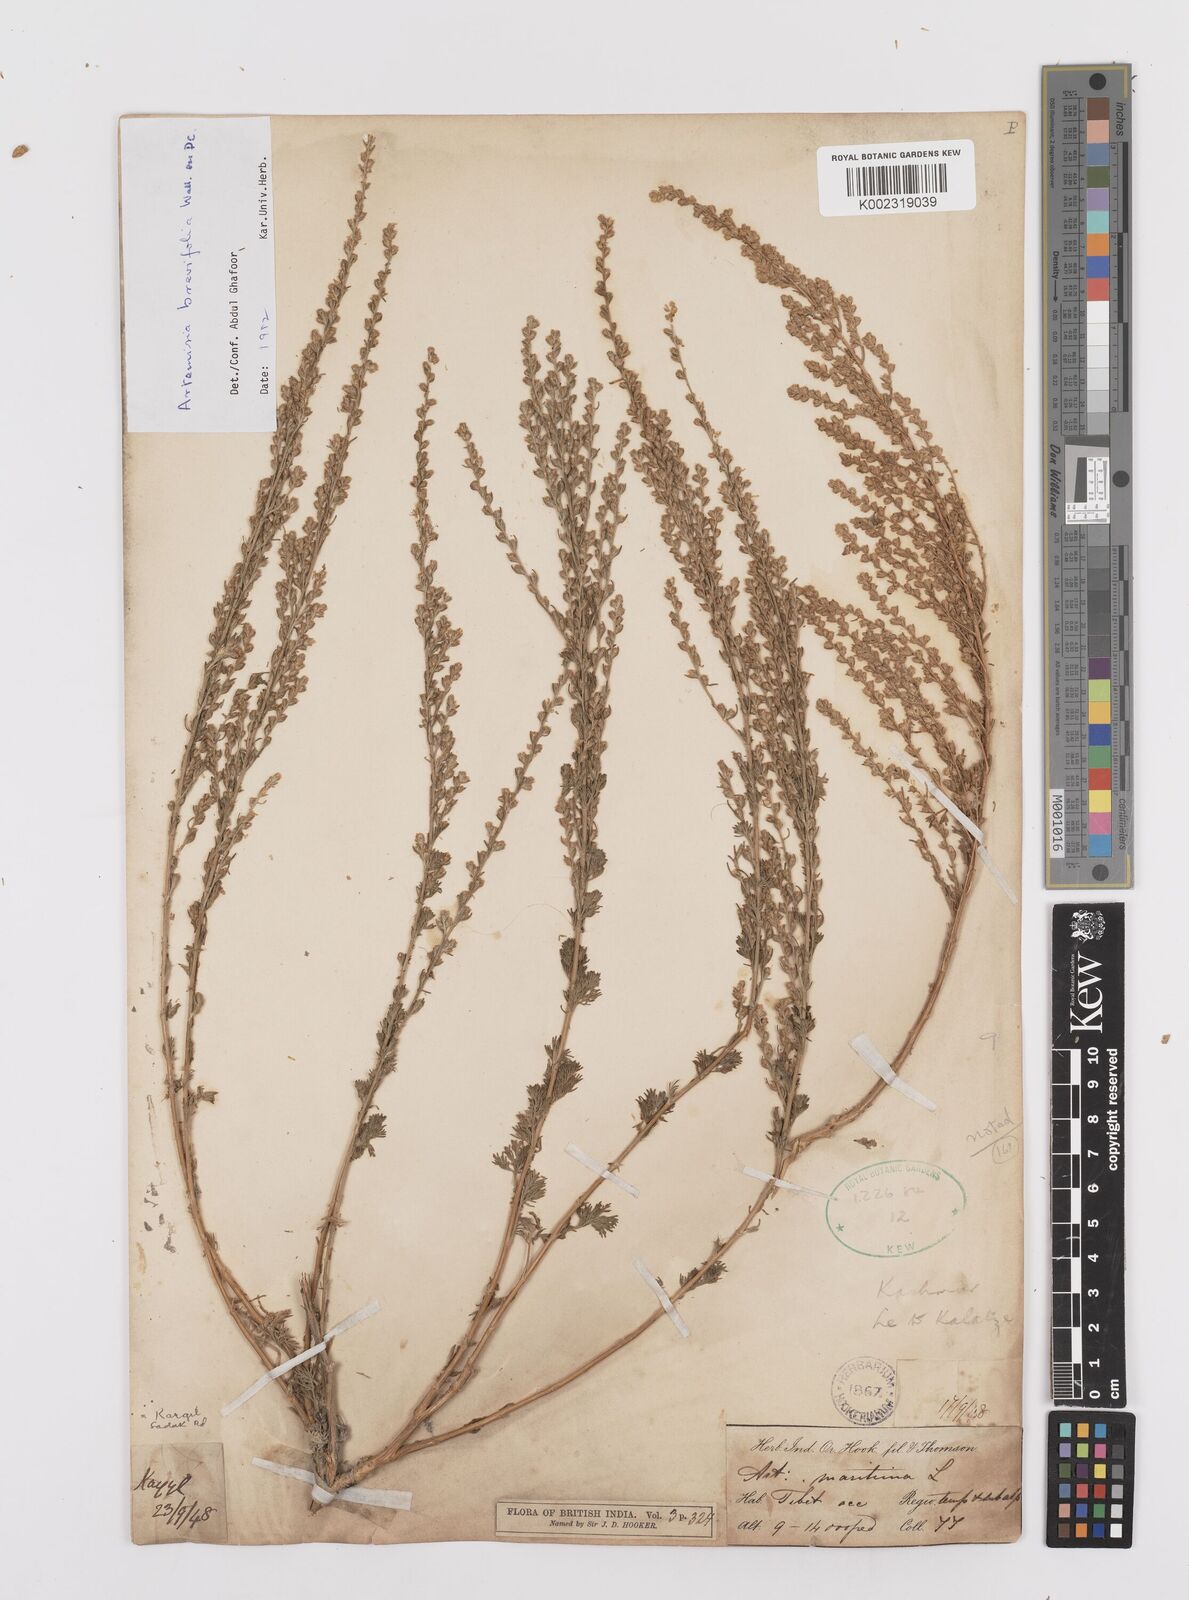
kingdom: Plantae
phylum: Tracheophyta
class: Magnoliopsida
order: Asterales
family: Asteraceae
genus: Artemisia
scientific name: Artemisia brevifolia
